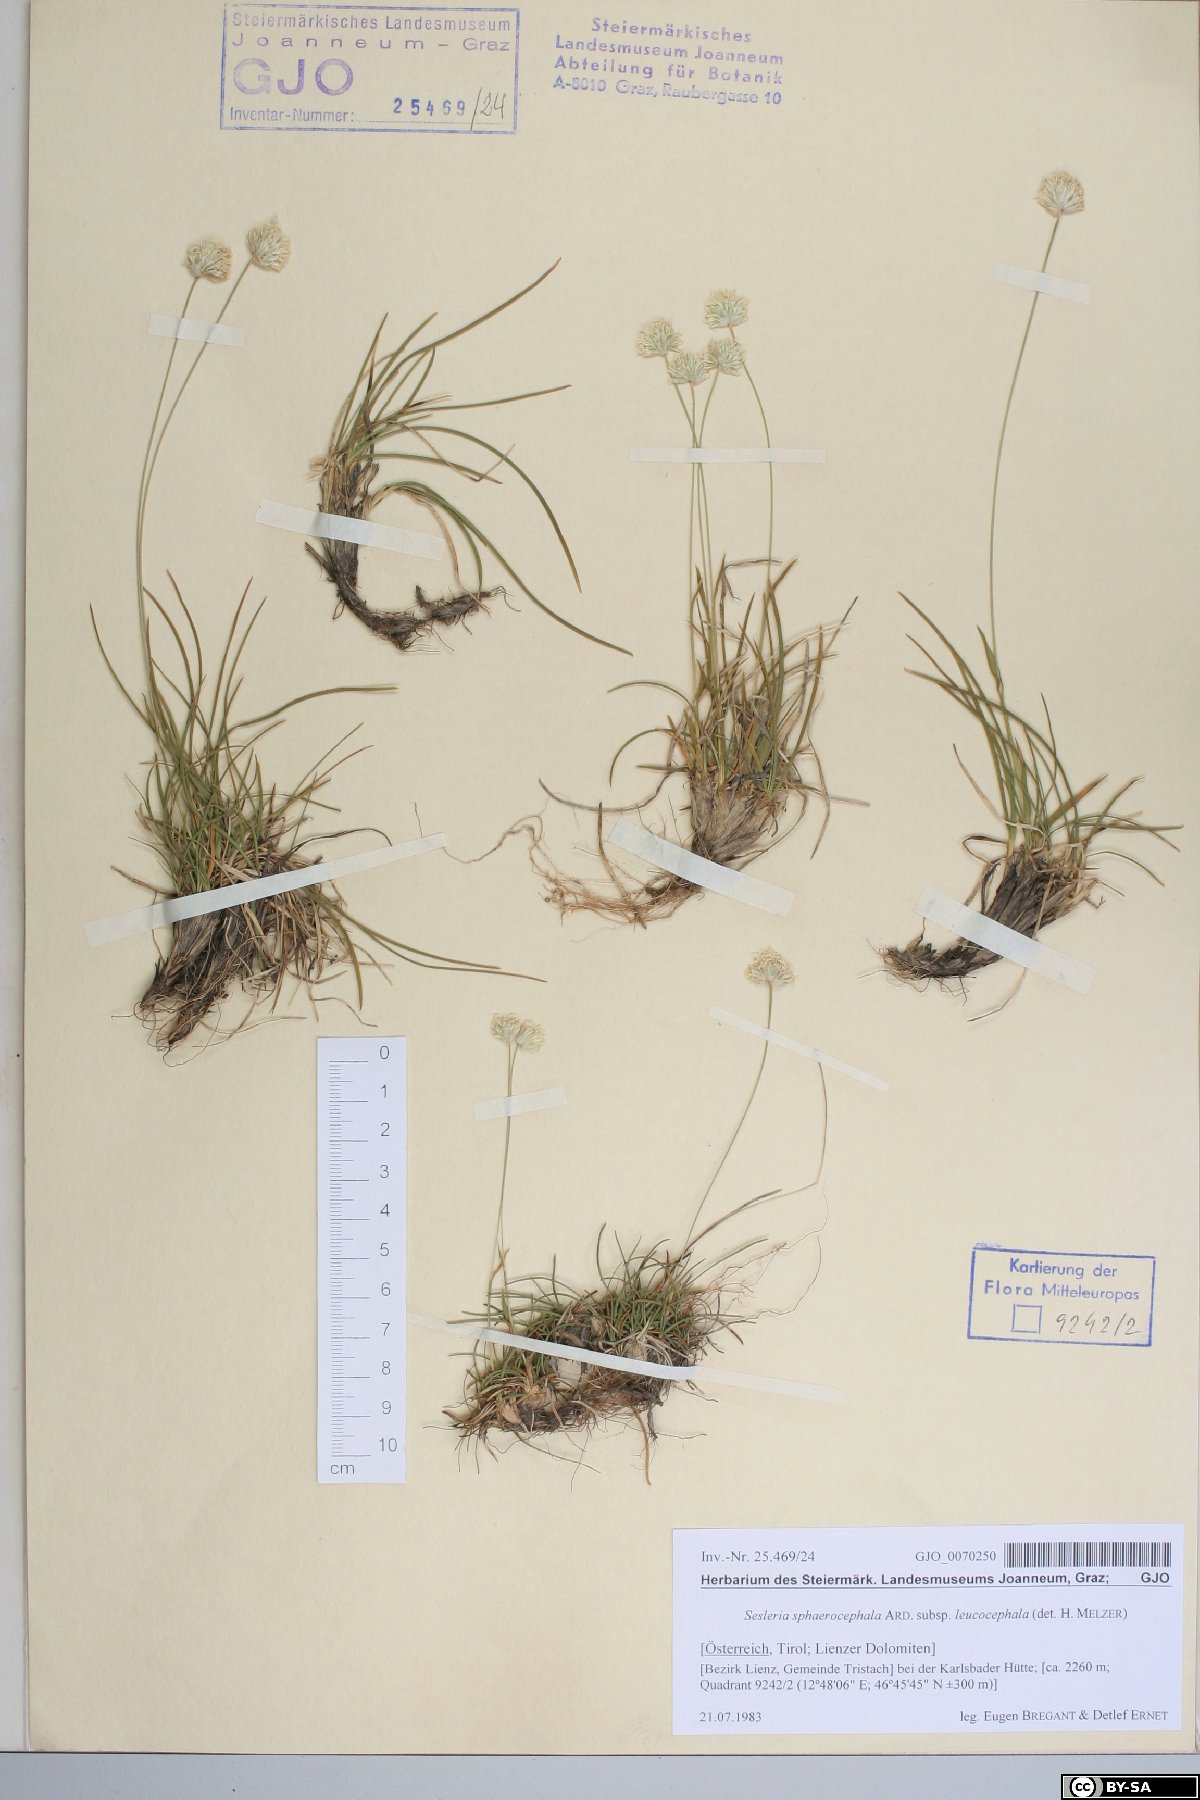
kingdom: Plantae
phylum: Tracheophyta
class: Liliopsida
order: Poales
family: Poaceae
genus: Sesleriella
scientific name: Sesleriella sphaerocephala
